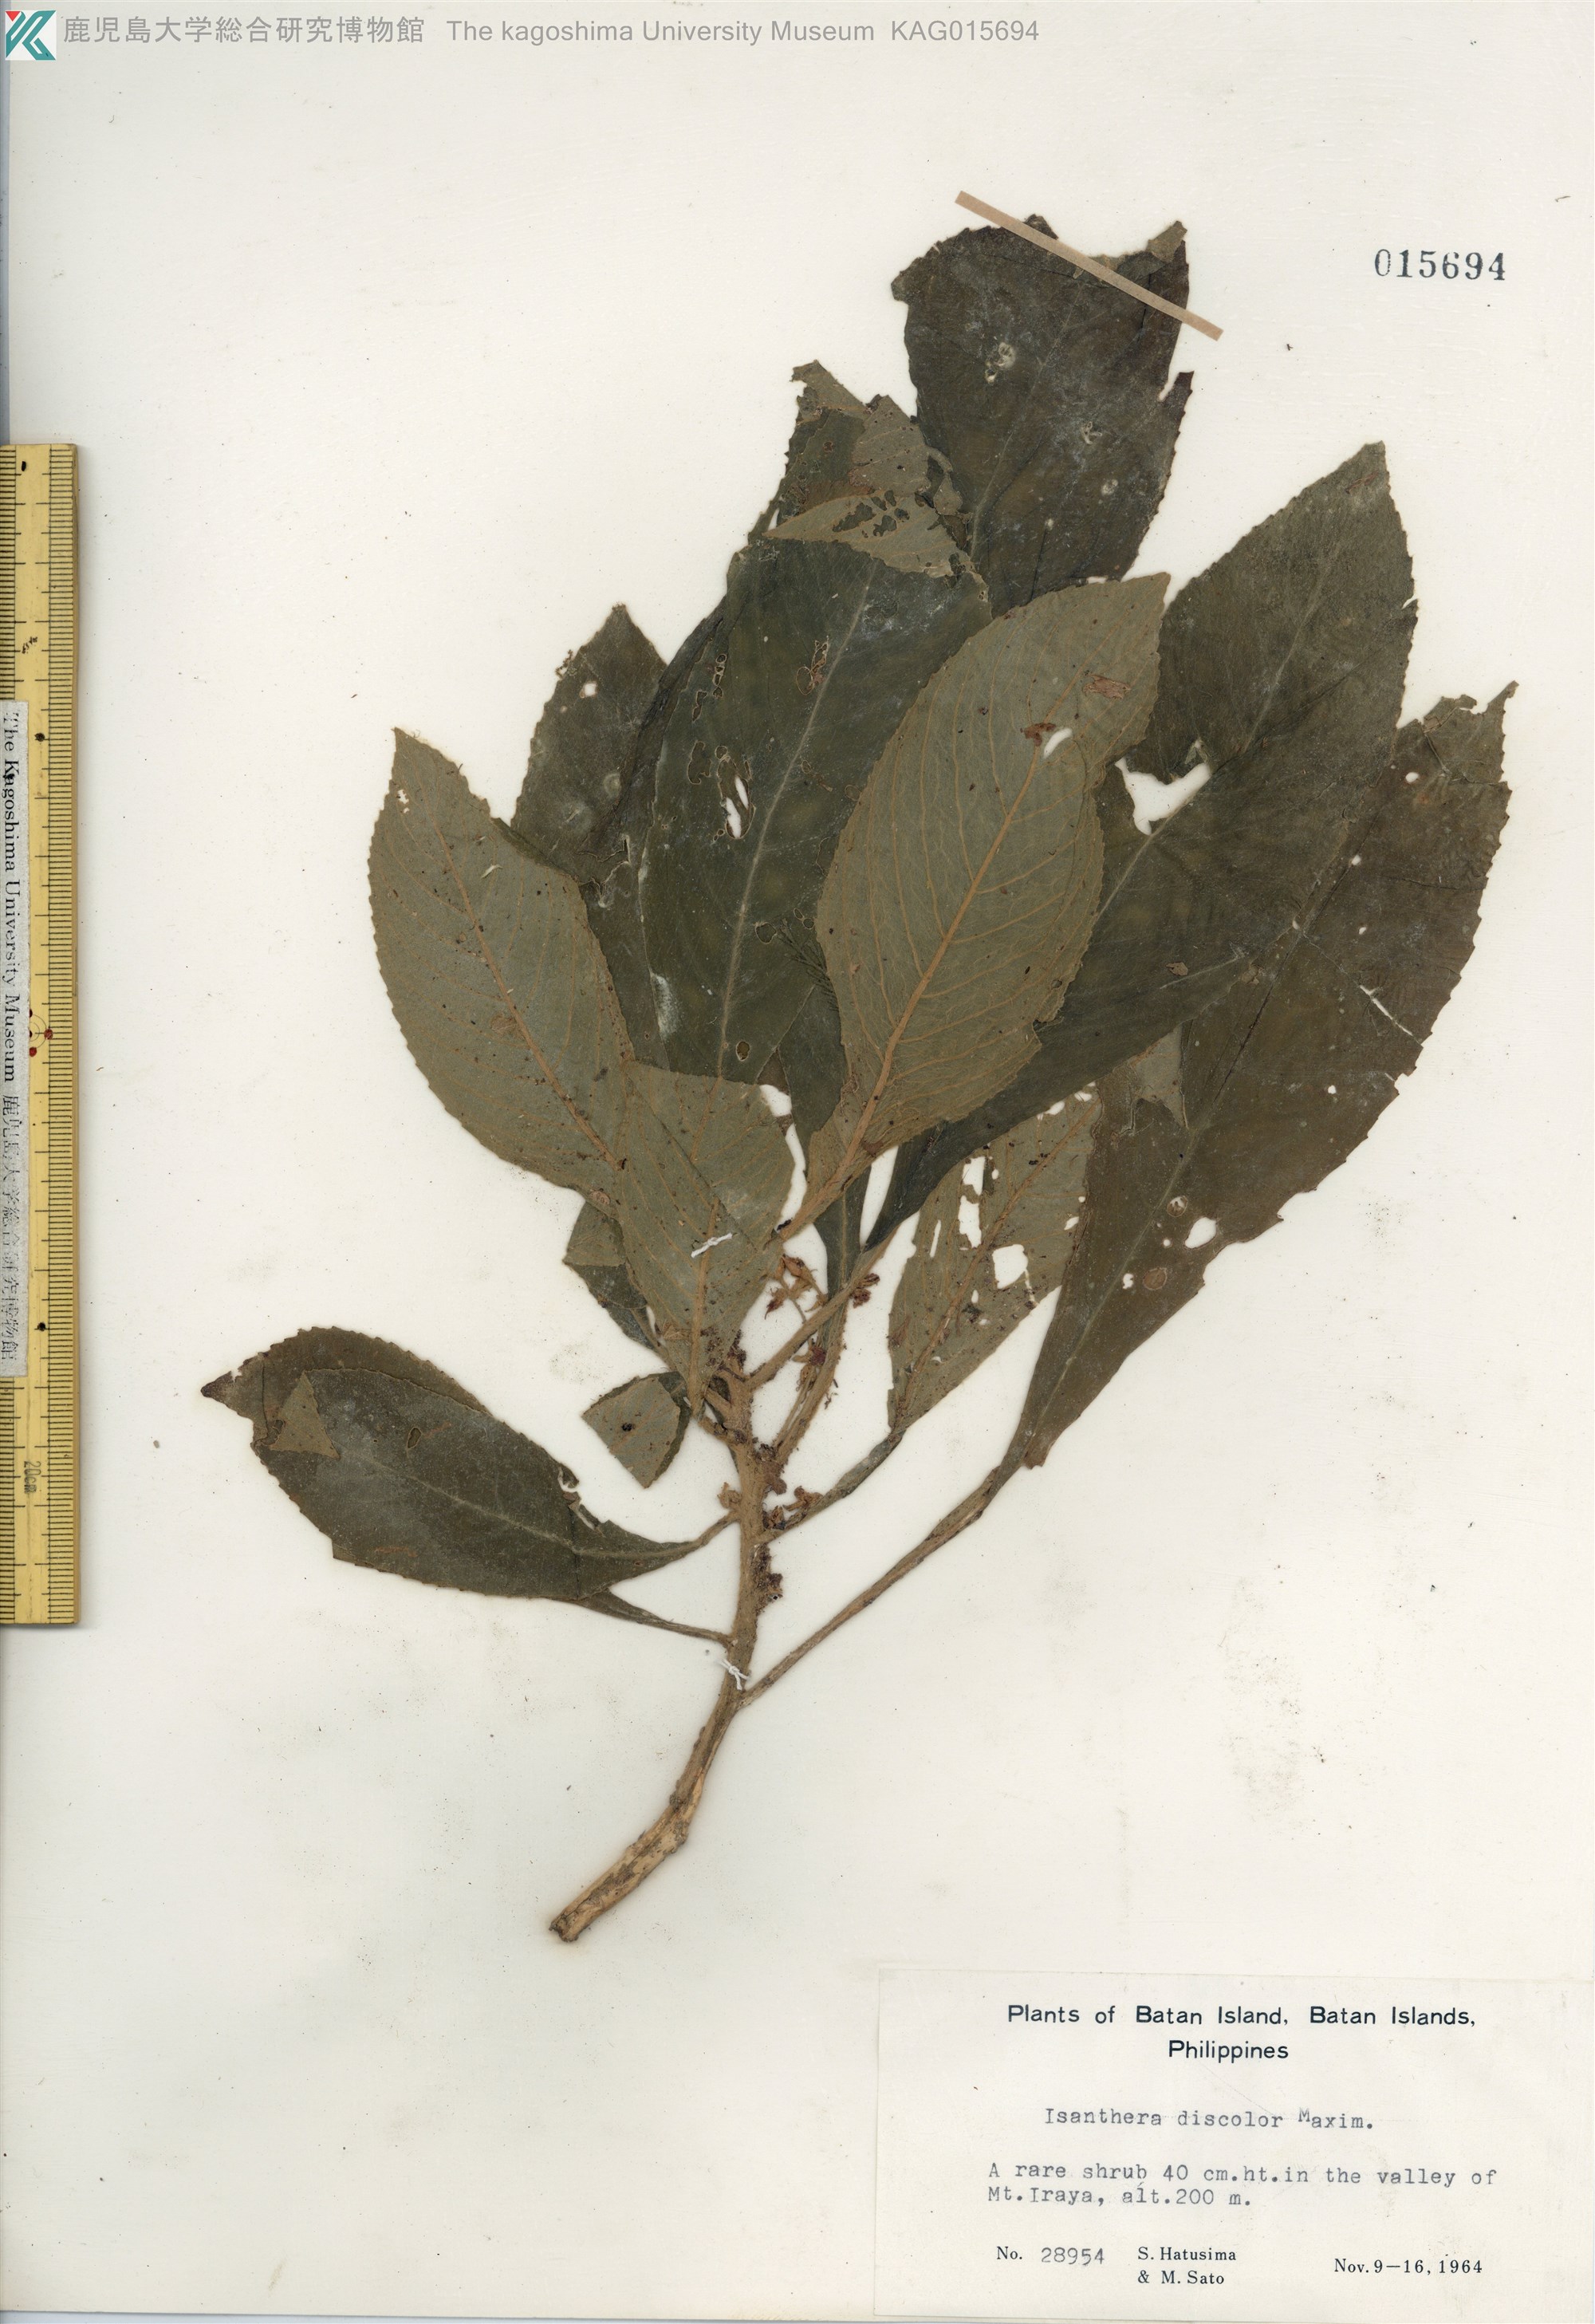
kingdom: Plantae
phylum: Tracheophyta
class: Magnoliopsida
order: Lamiales
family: Gesneriaceae
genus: Rhynchotechum
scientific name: Rhynchotechum discolor
